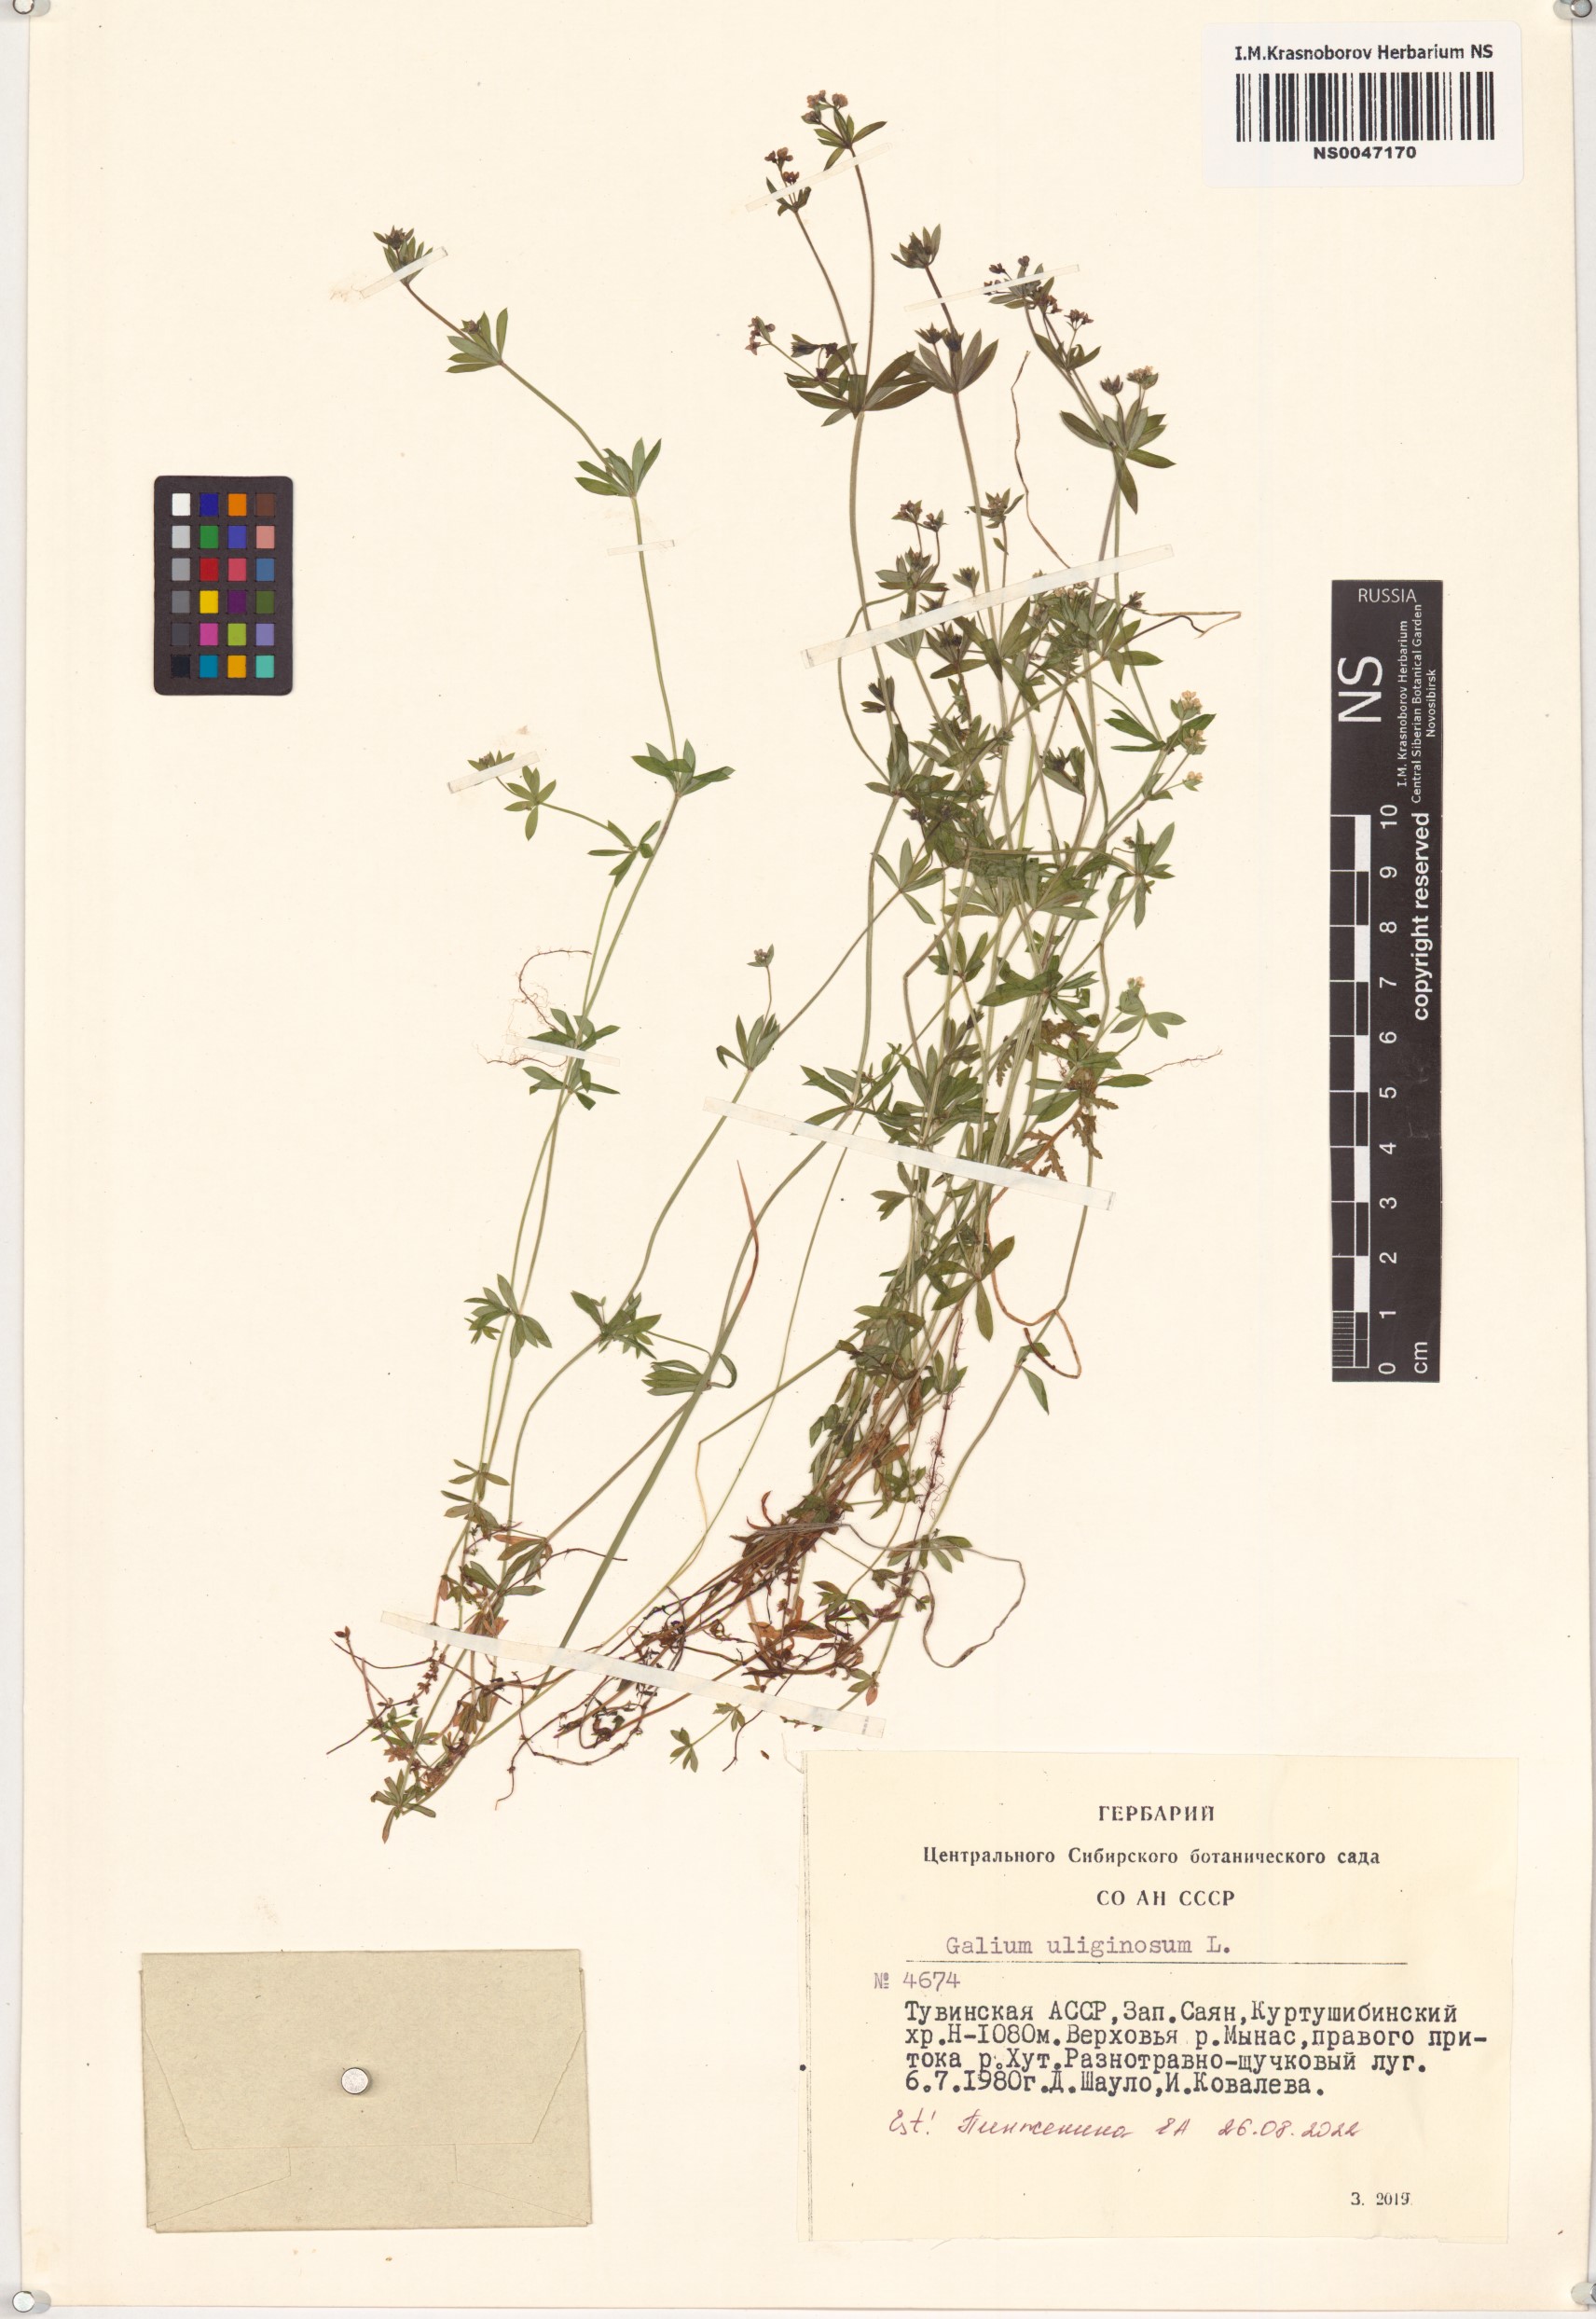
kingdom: Plantae
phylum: Tracheophyta
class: Magnoliopsida
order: Gentianales
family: Rubiaceae
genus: Galium
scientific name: Galium uliginosum
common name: Fen bedstraw
